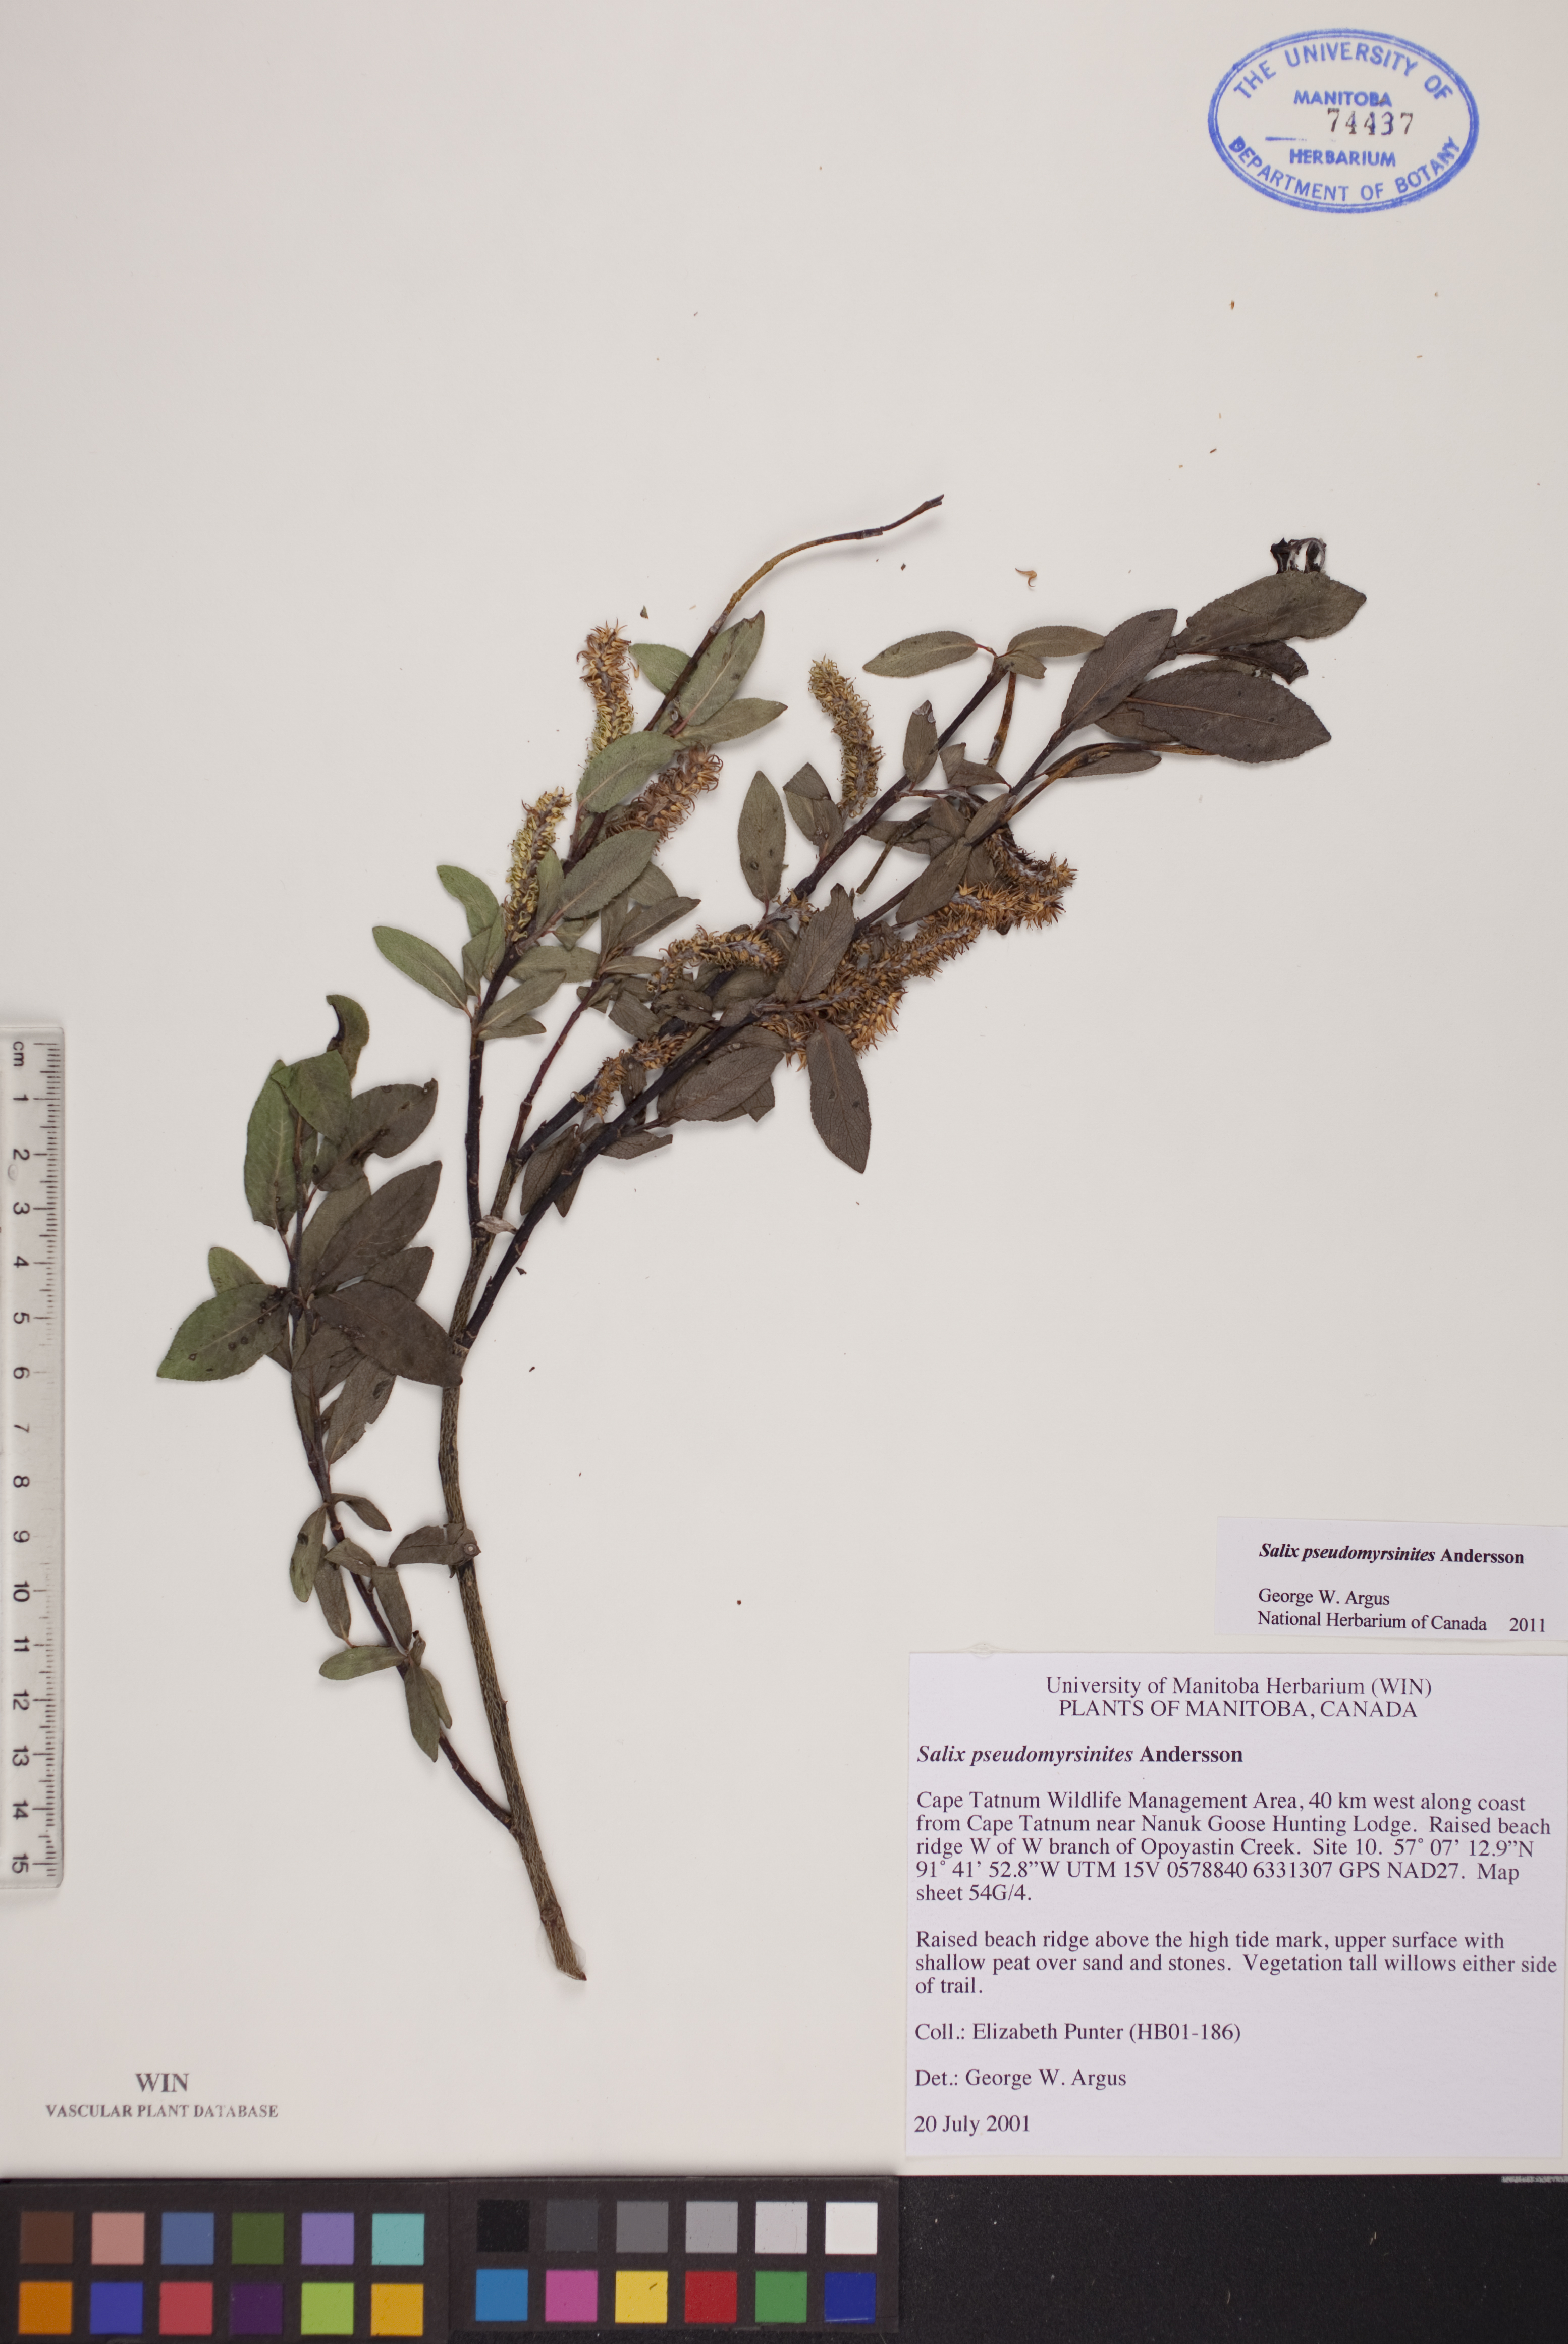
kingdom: Plantae
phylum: Tracheophyta
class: Magnoliopsida
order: Malpighiales
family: Salicaceae
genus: Salix
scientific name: Salix pseudomyrsinites
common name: Tall blueberry willow
